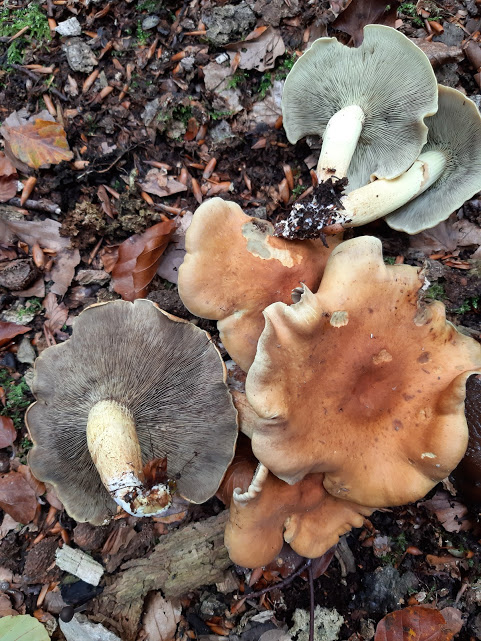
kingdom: Fungi
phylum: Basidiomycota
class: Agaricomycetes
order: Agaricales
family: Strophariaceae
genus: Hypholoma
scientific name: Hypholoma fasciculare
